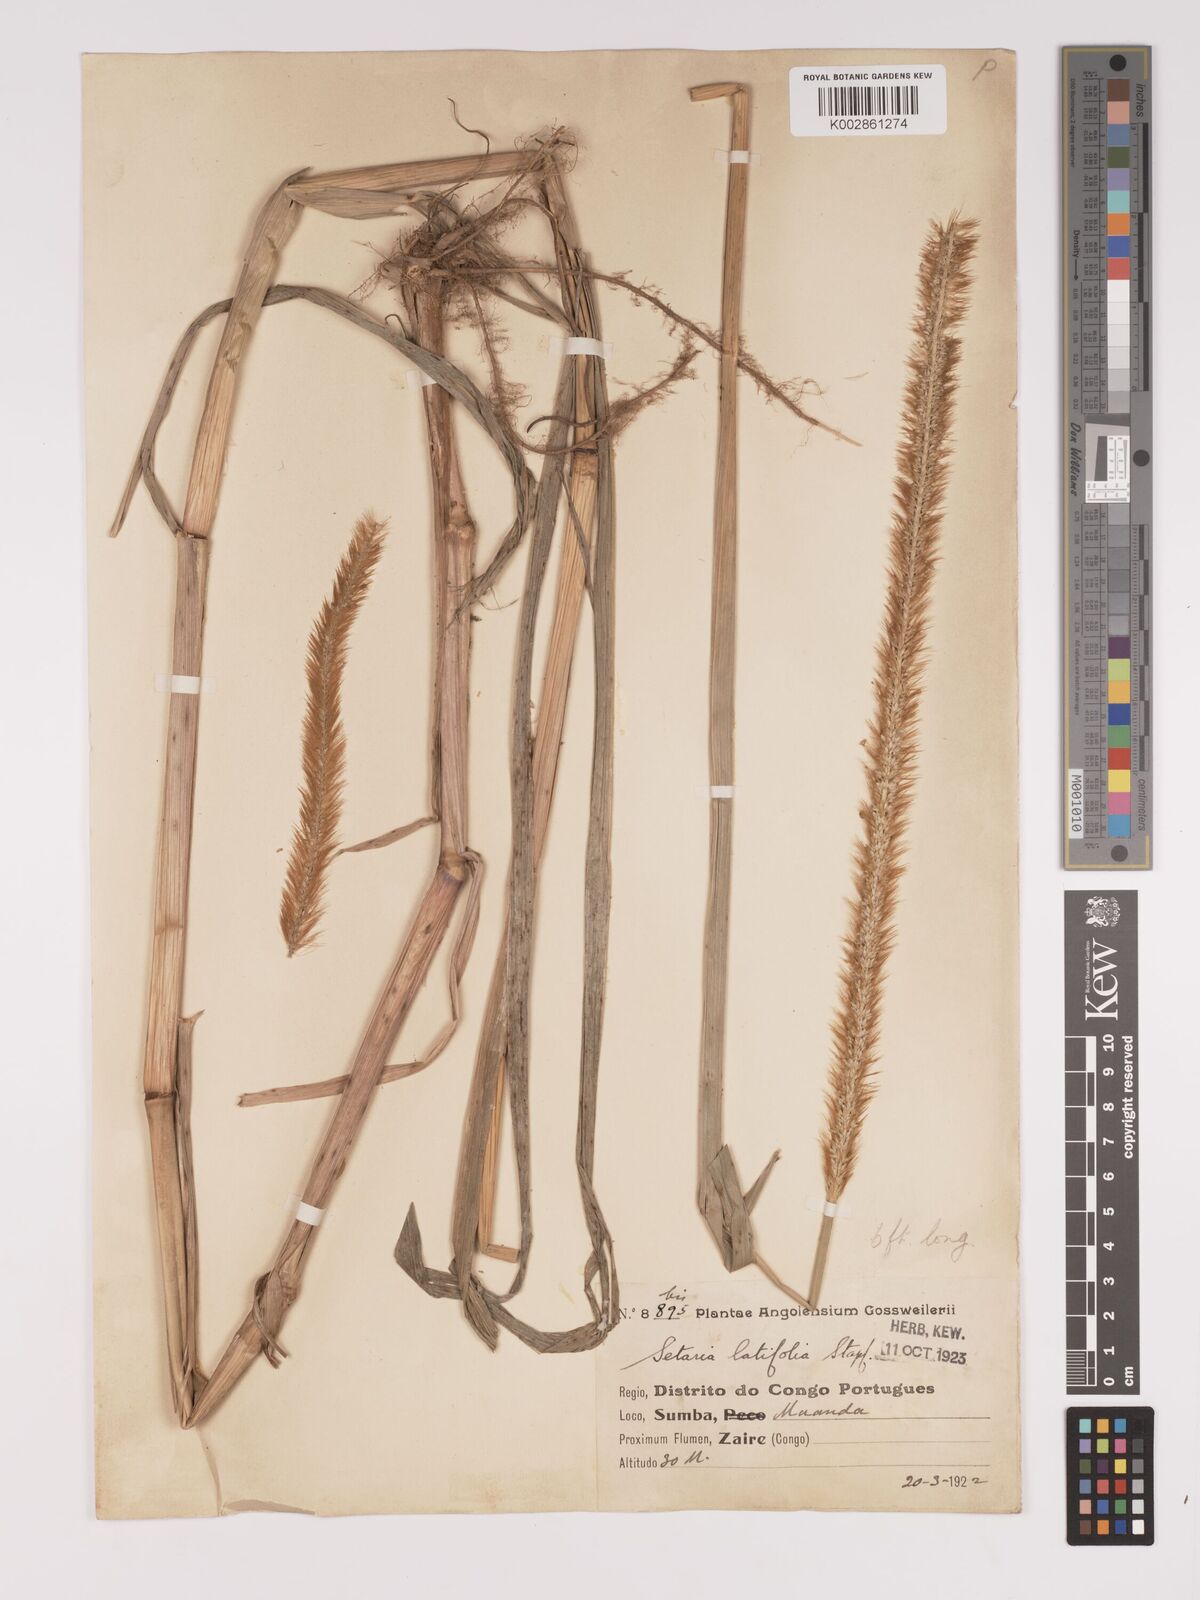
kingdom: Plantae
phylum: Tracheophyta
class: Liliopsida
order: Poales
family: Poaceae
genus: Setaria
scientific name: Setaria sphacelata
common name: African bristlegrass
